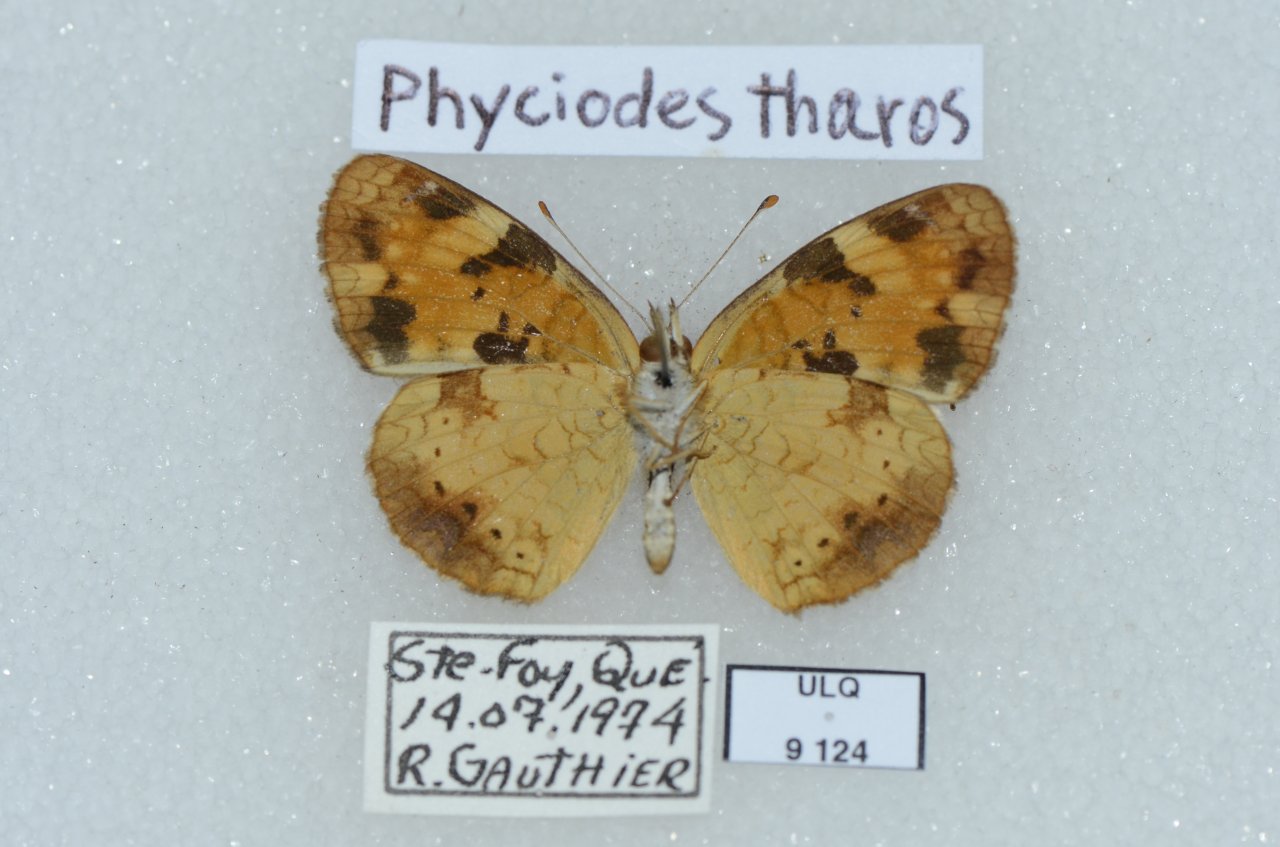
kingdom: Animalia
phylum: Arthropoda
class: Insecta
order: Lepidoptera
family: Nymphalidae
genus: Phyciodes
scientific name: Phyciodes tharos
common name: Northern Crescent
